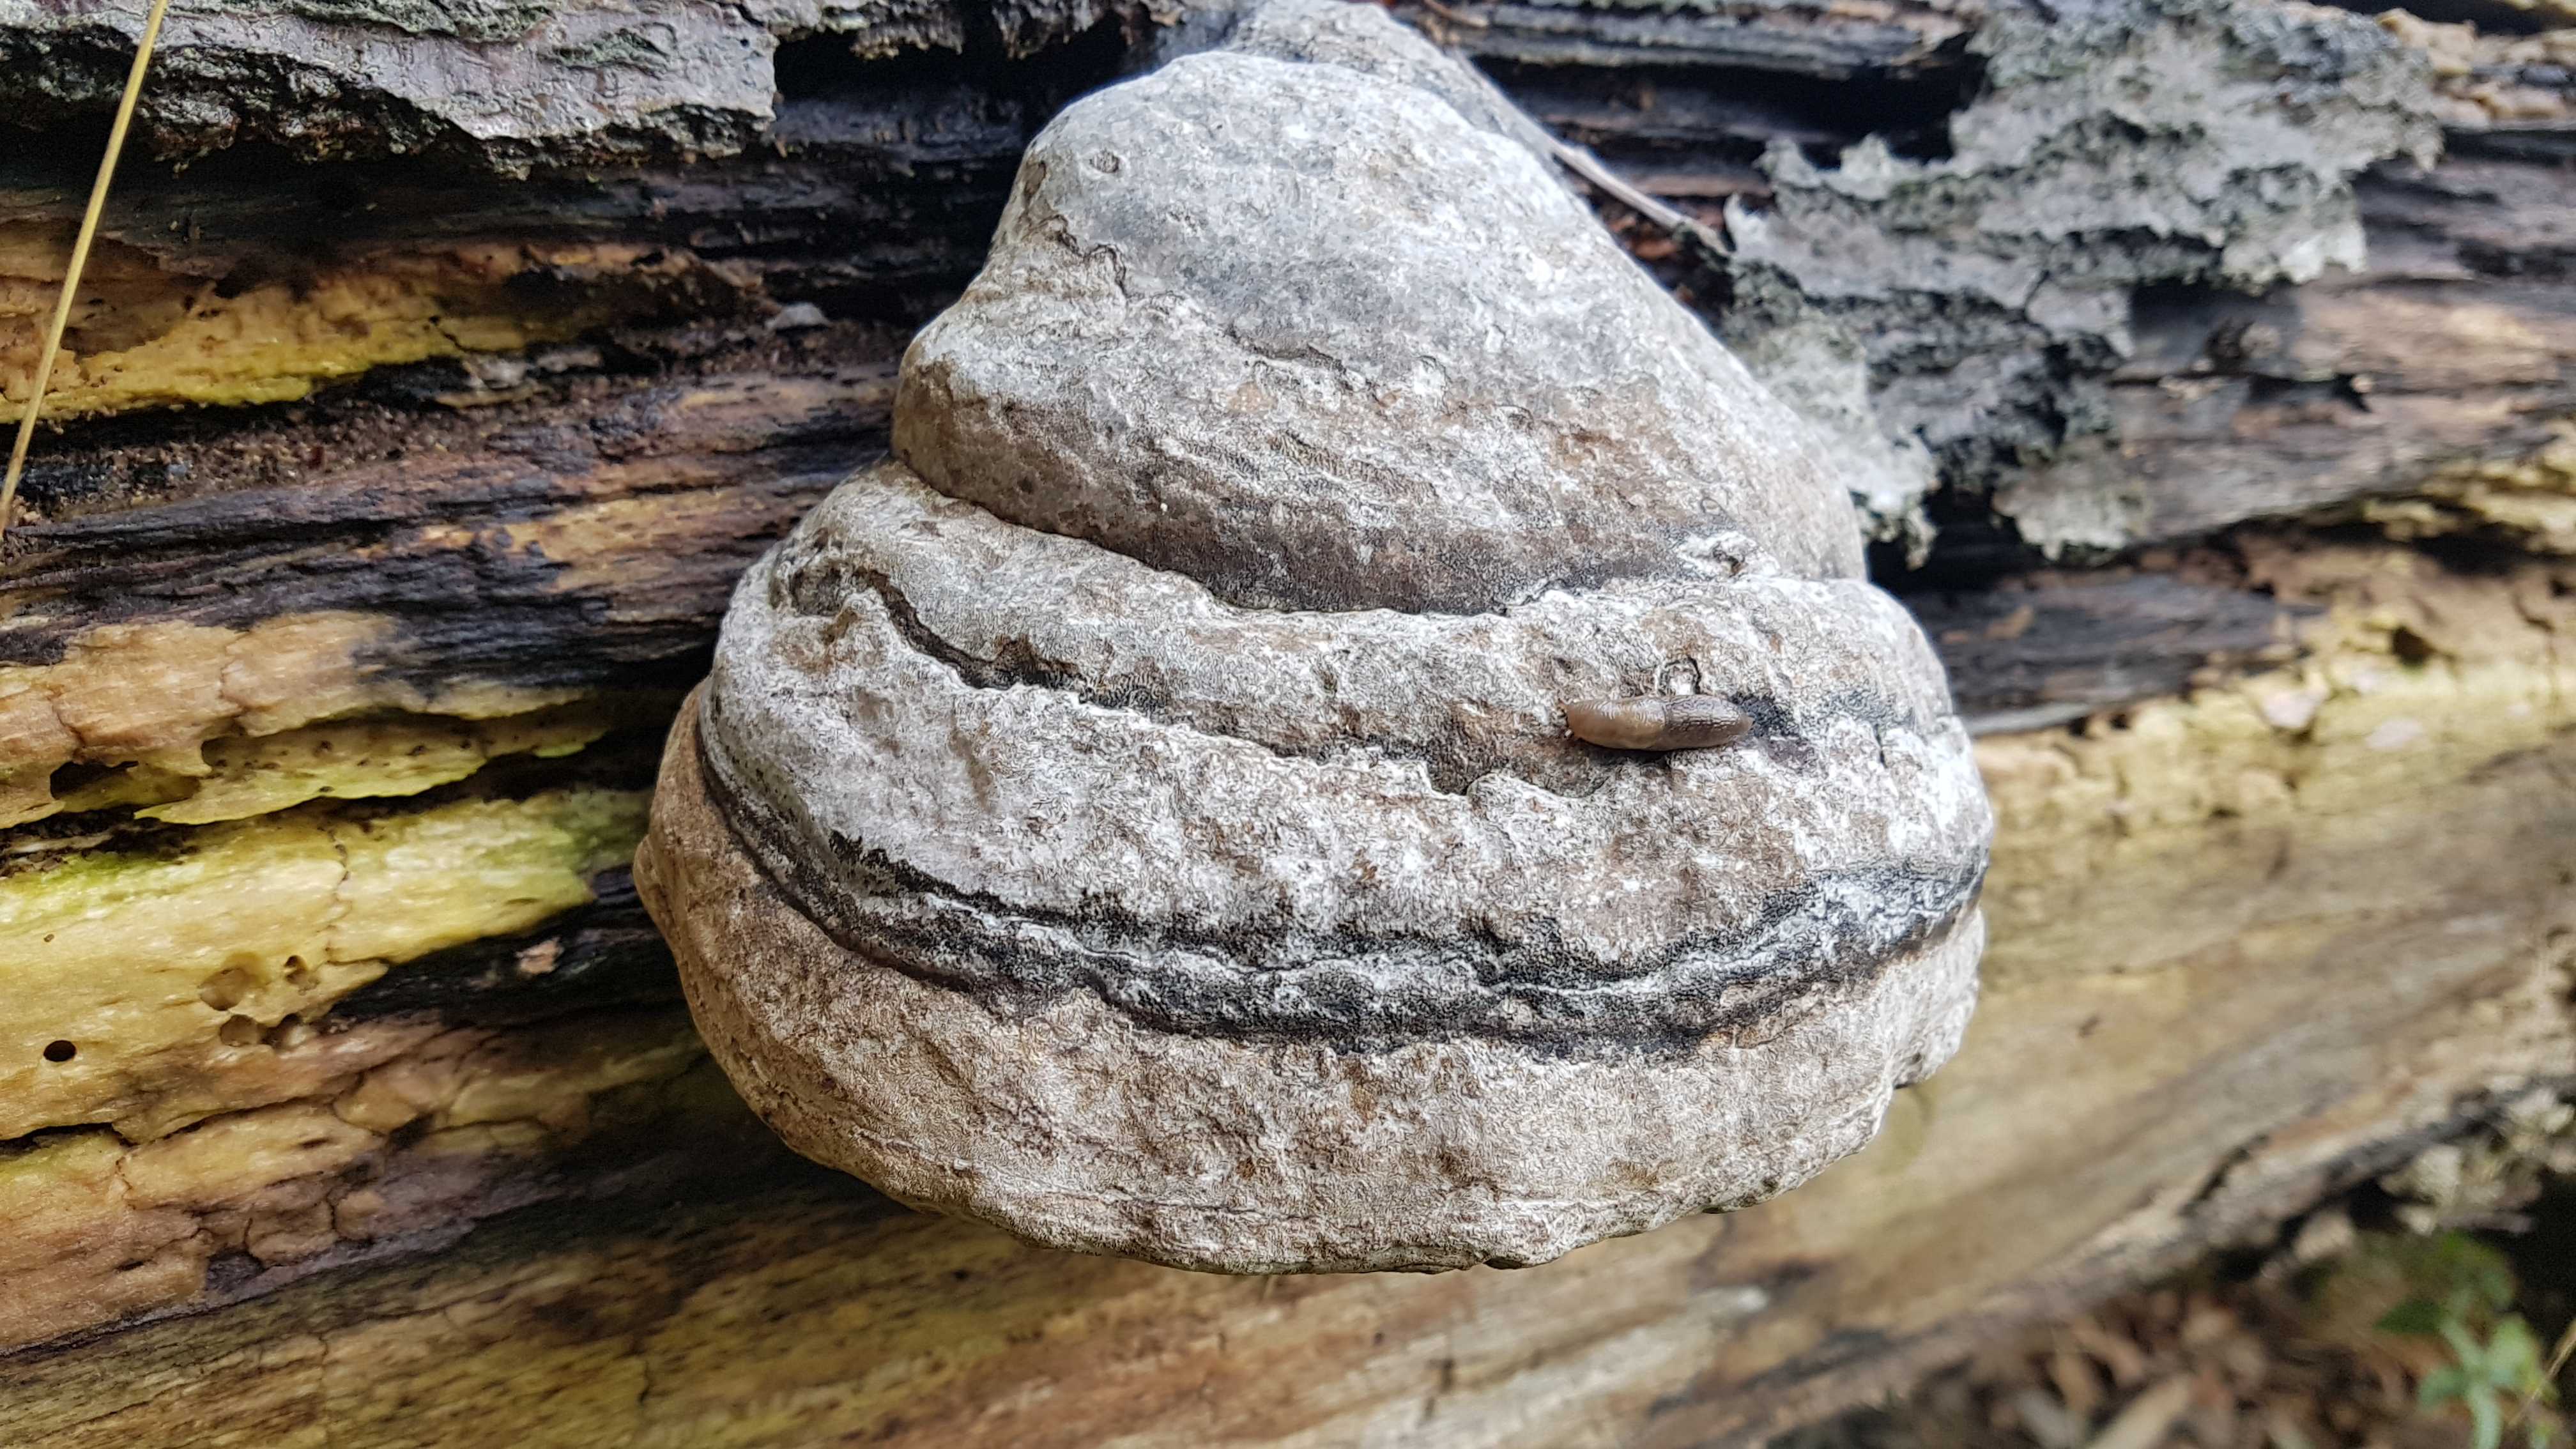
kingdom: Fungi
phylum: Basidiomycota
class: Agaricomycetes
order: Polyporales
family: Polyporaceae
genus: Fomes
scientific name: Fomes fomentarius
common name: tøndersvamp
